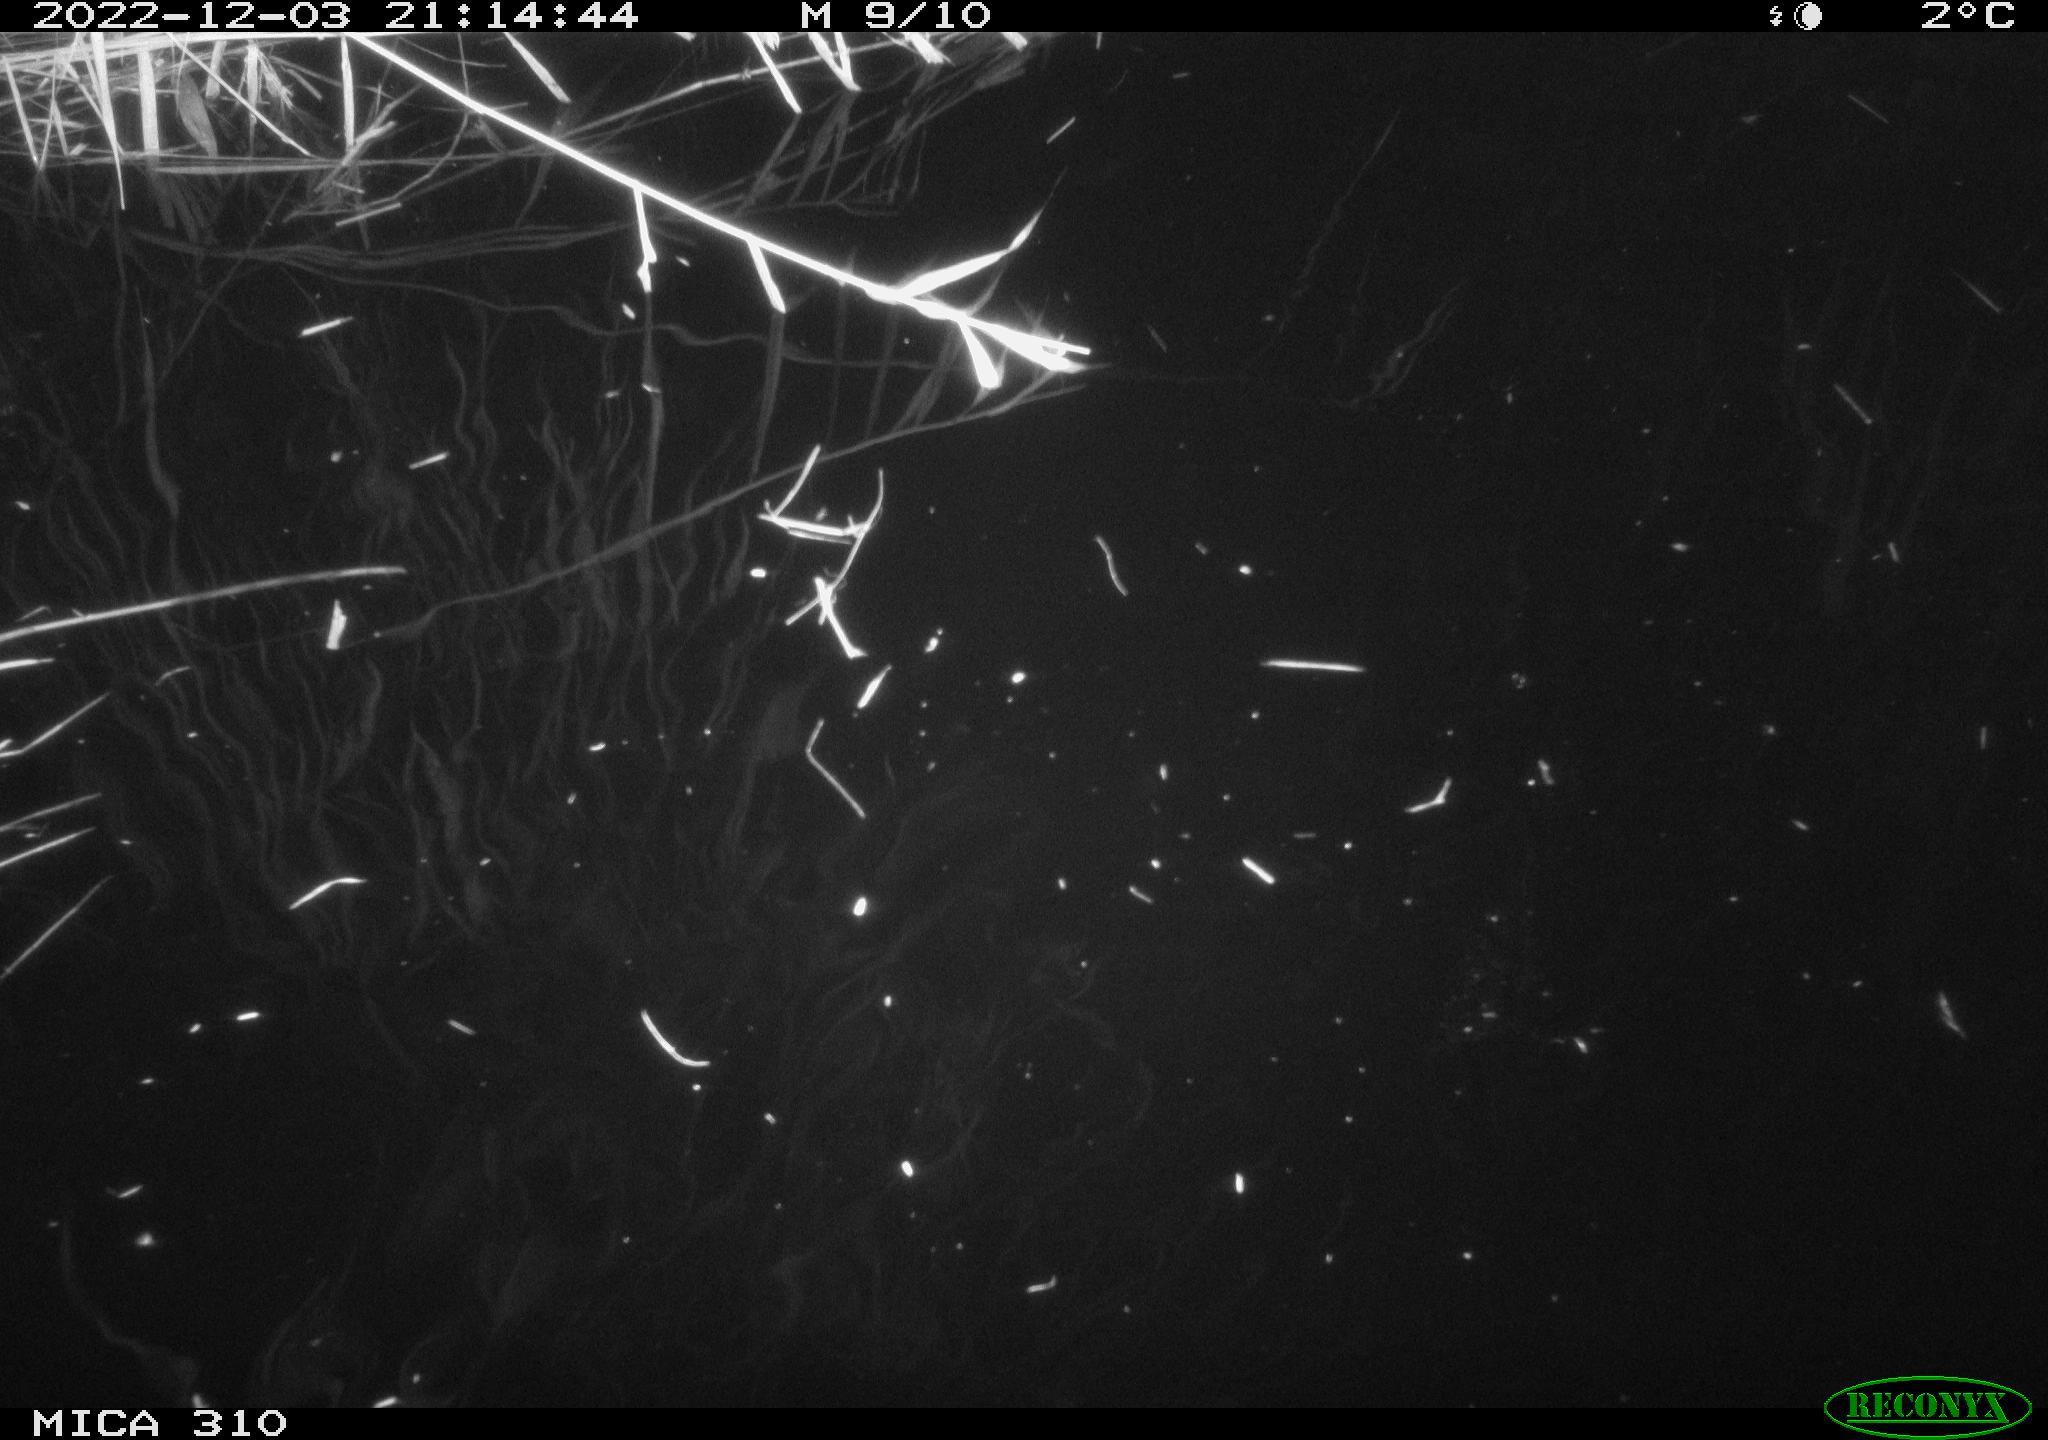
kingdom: Animalia
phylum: Chordata
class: Aves
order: Gruiformes
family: Rallidae
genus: Fulica
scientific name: Fulica atra
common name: Eurasian coot
